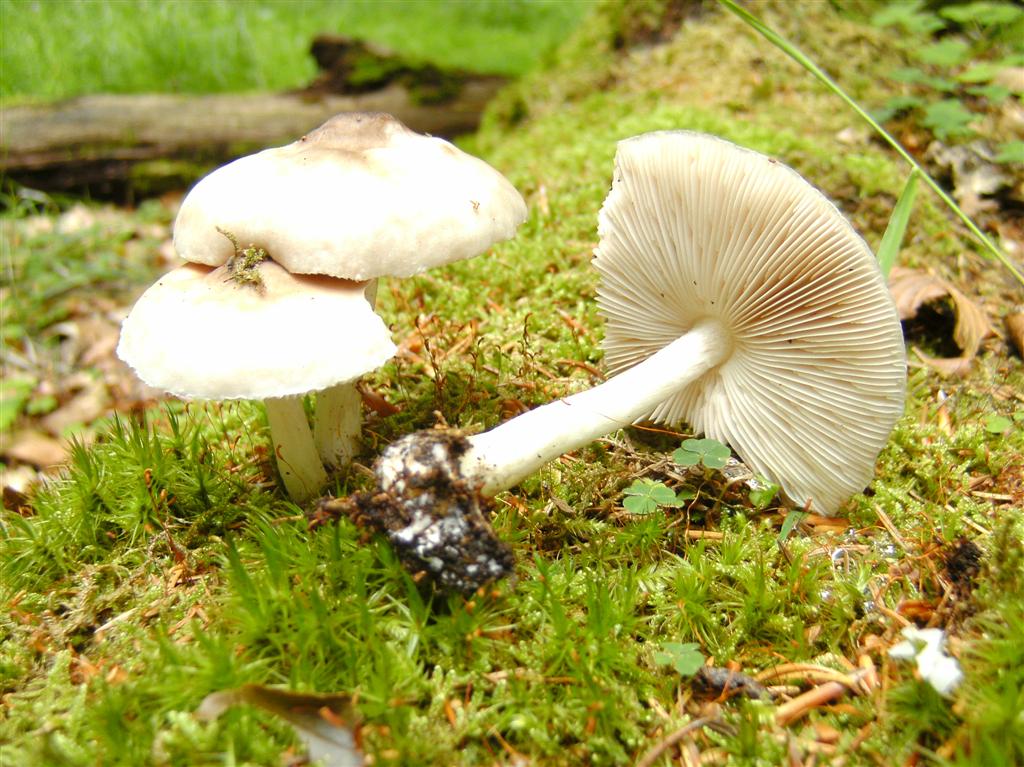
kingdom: Fungi
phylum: Basidiomycota
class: Agaricomycetes
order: Agaricales
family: Pluteaceae
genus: Pluteus
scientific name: Pluteus cervinus
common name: sodfarvet skærmhat
